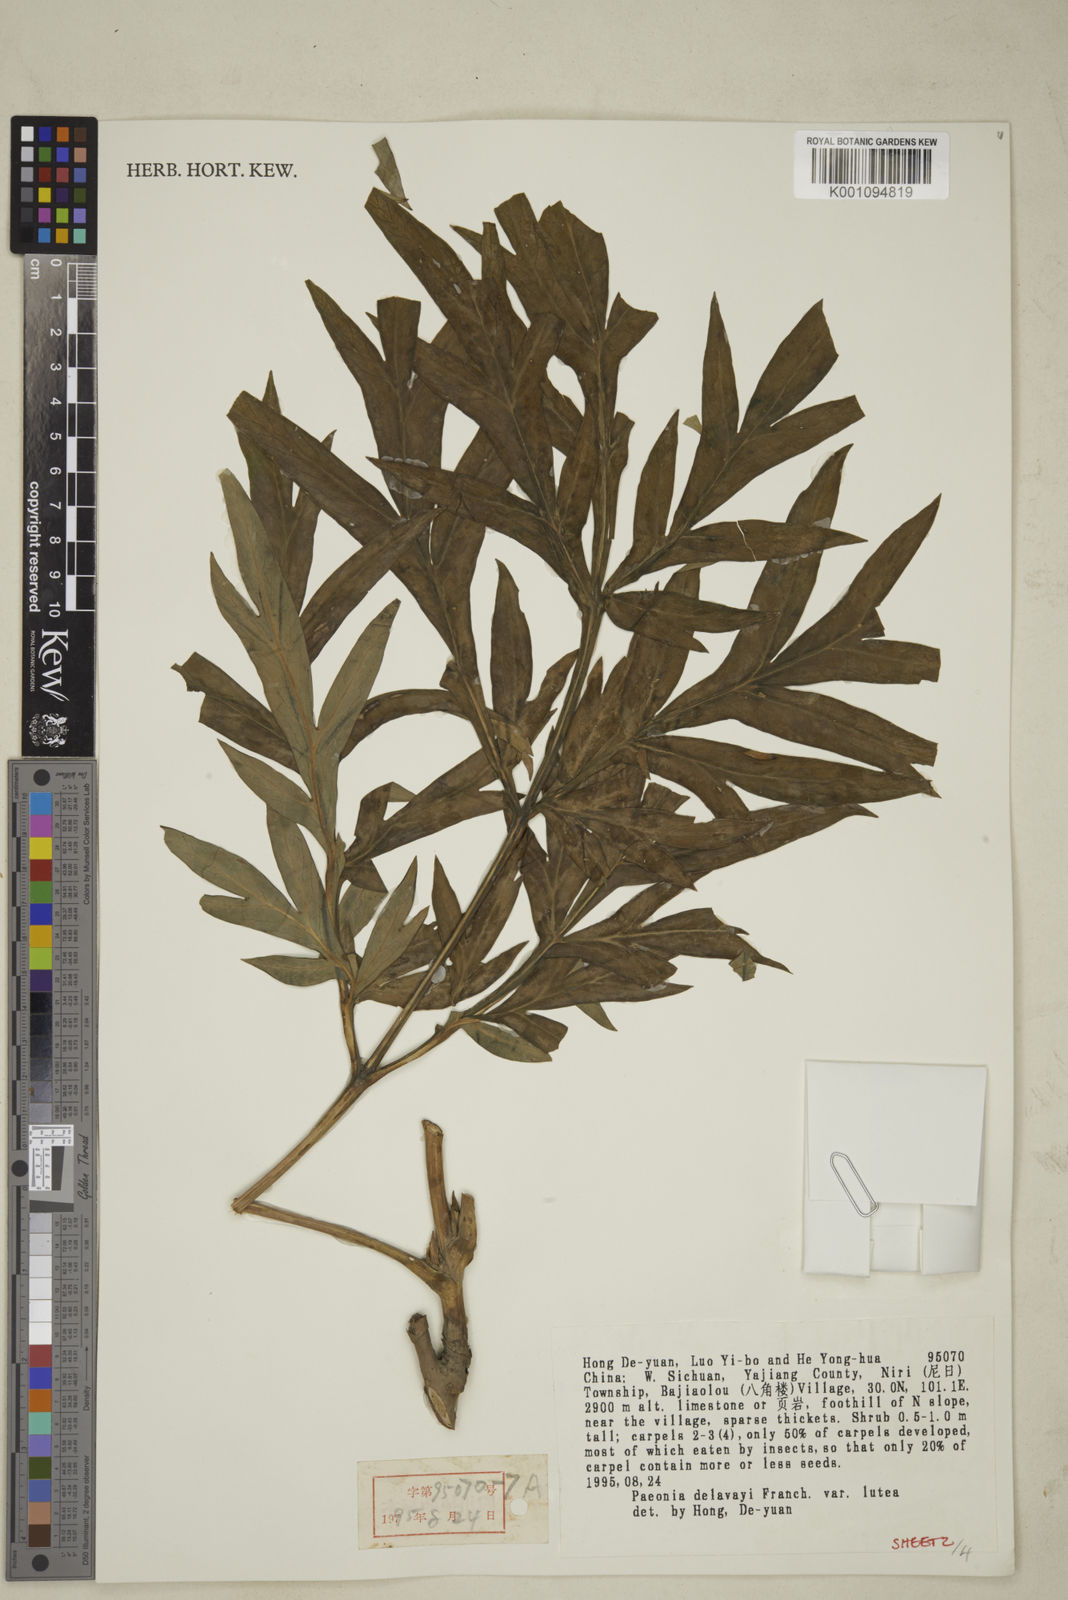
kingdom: Plantae
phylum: Tracheophyta
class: Magnoliopsida
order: Saxifragales
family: Paeoniaceae
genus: Paeonia
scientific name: Paeonia delavayi
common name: Dian mu dan
